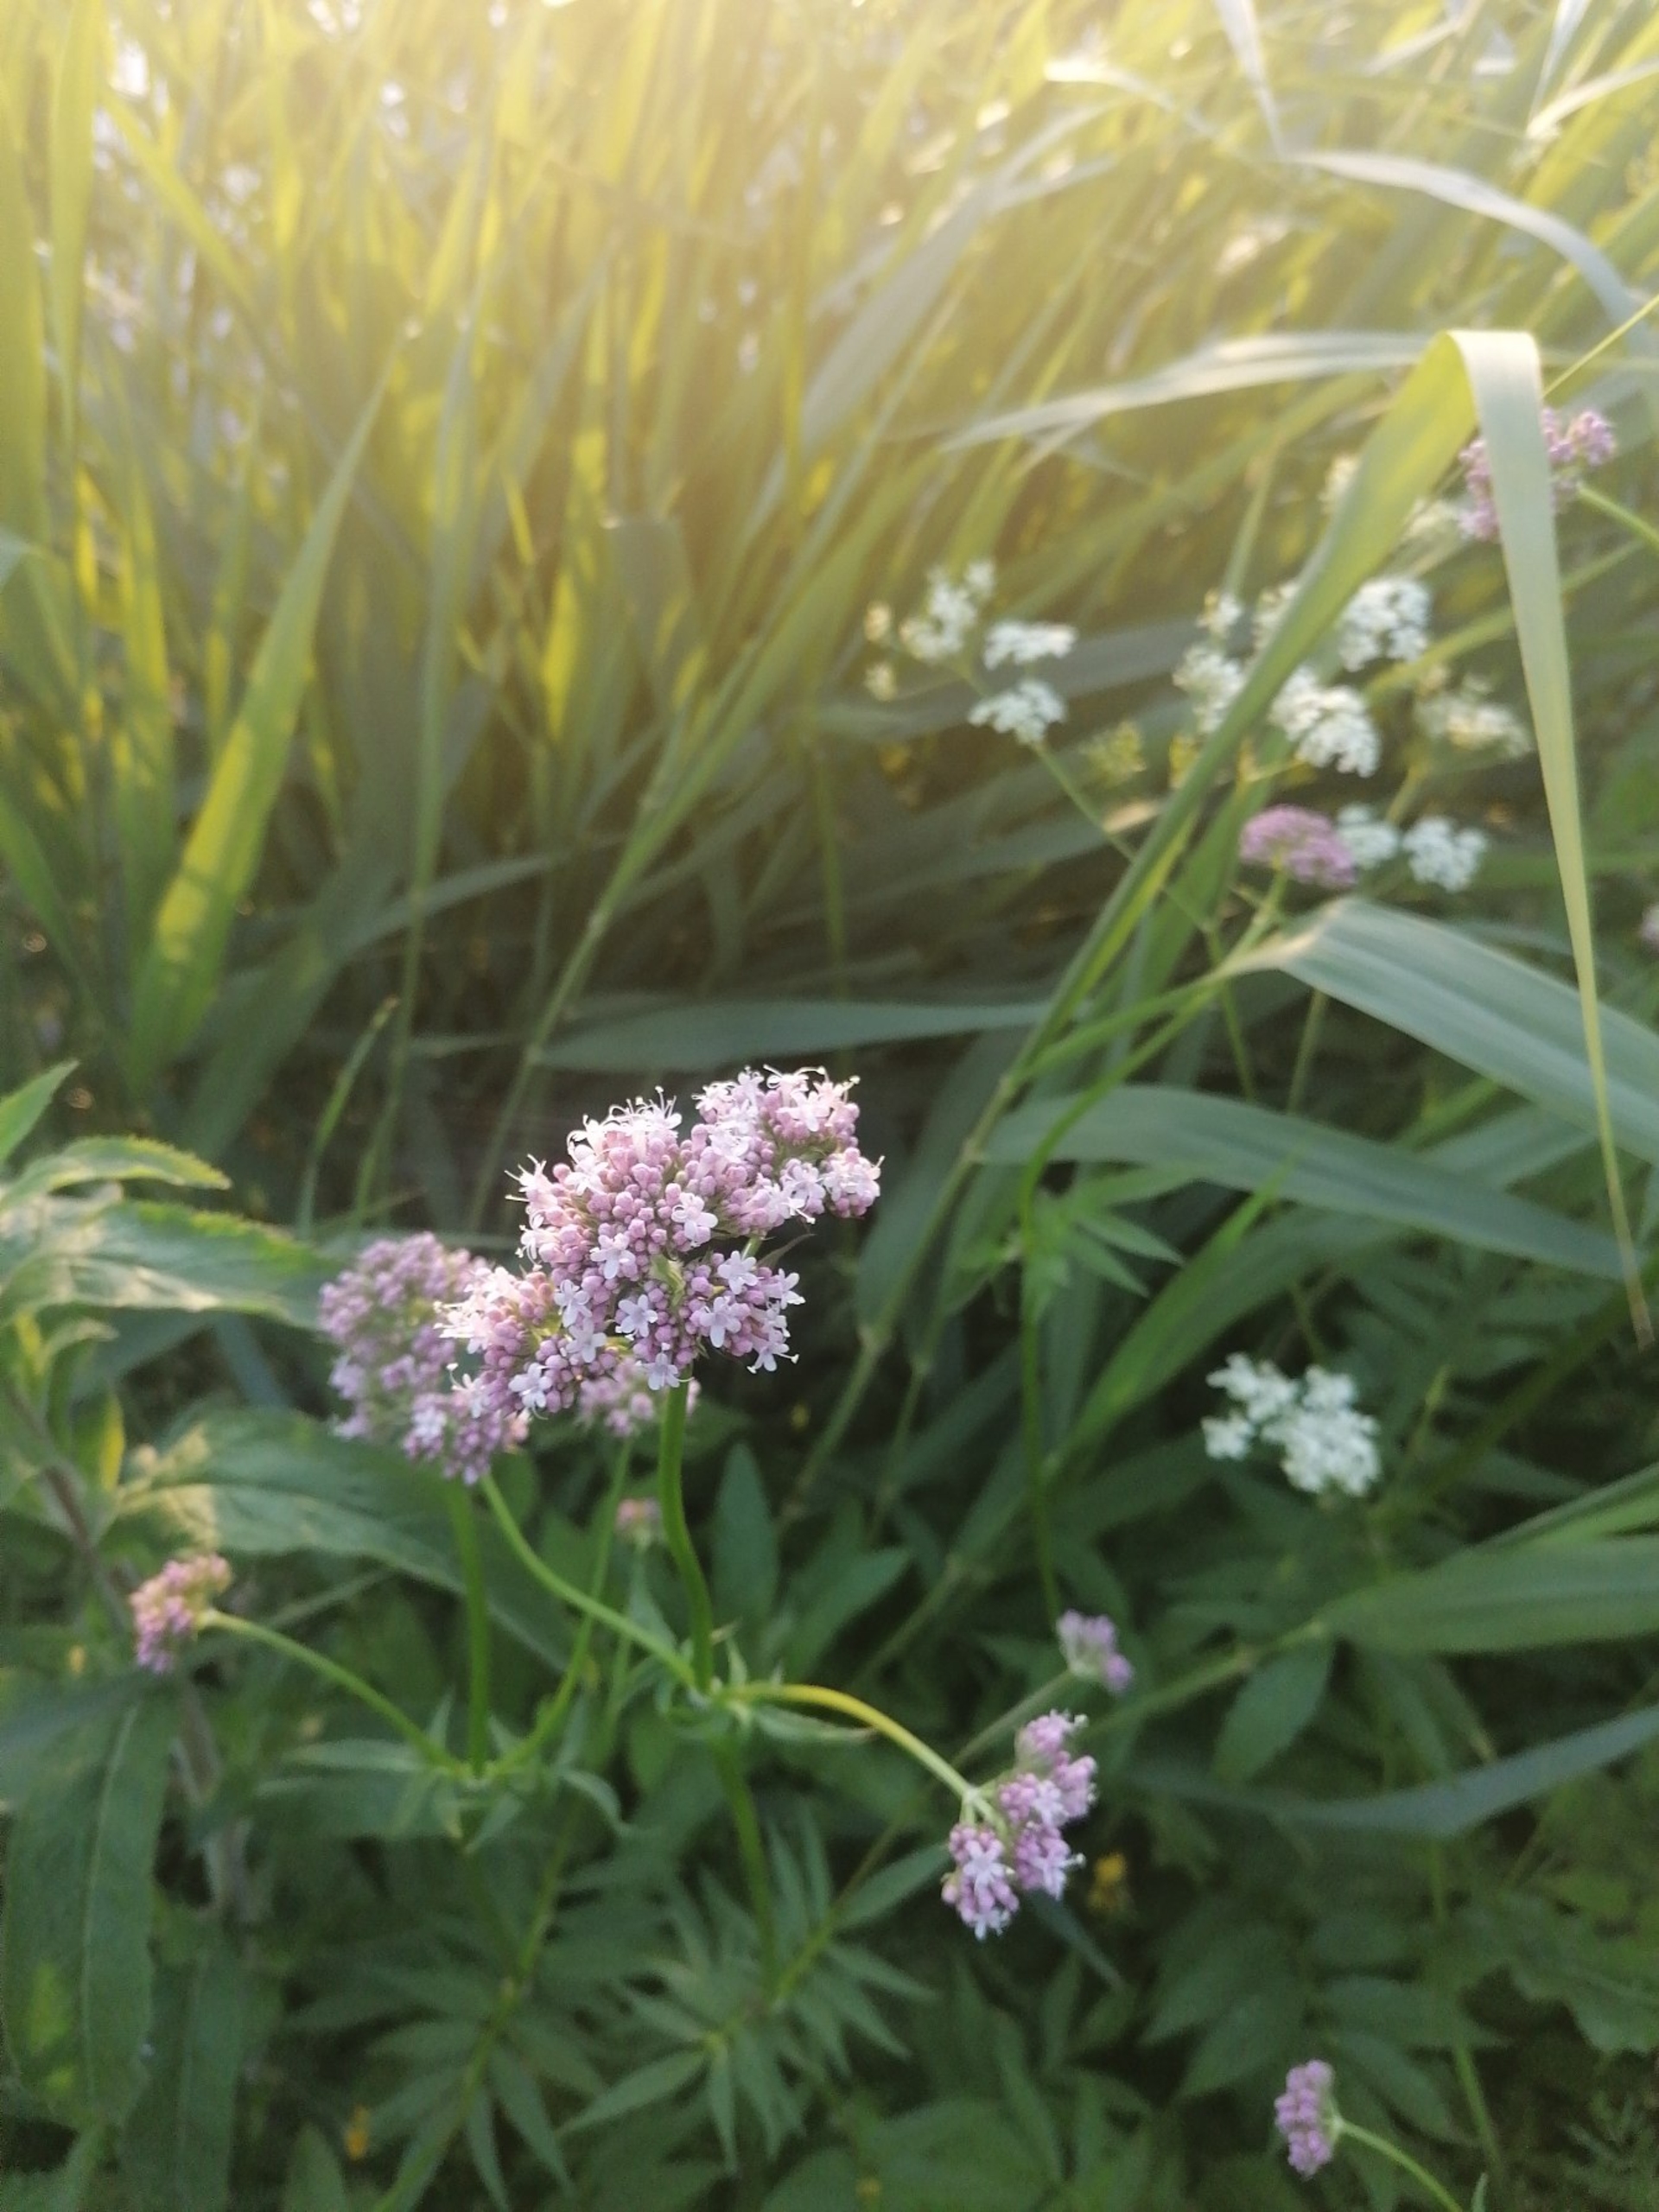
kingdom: Plantae
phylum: Tracheophyta
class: Magnoliopsida
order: Dipsacales
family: Caprifoliaceae
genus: Valeriana
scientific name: Valeriana sambucifolia
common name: Hyldebladet baldrian
